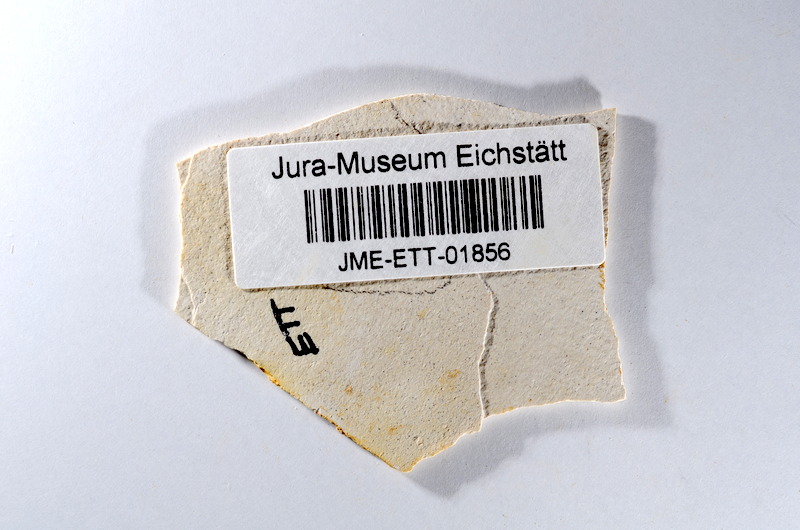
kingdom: Animalia
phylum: Chordata
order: Salmoniformes
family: Orthogonikleithridae
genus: Orthogonikleithrus
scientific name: Orthogonikleithrus hoelli
